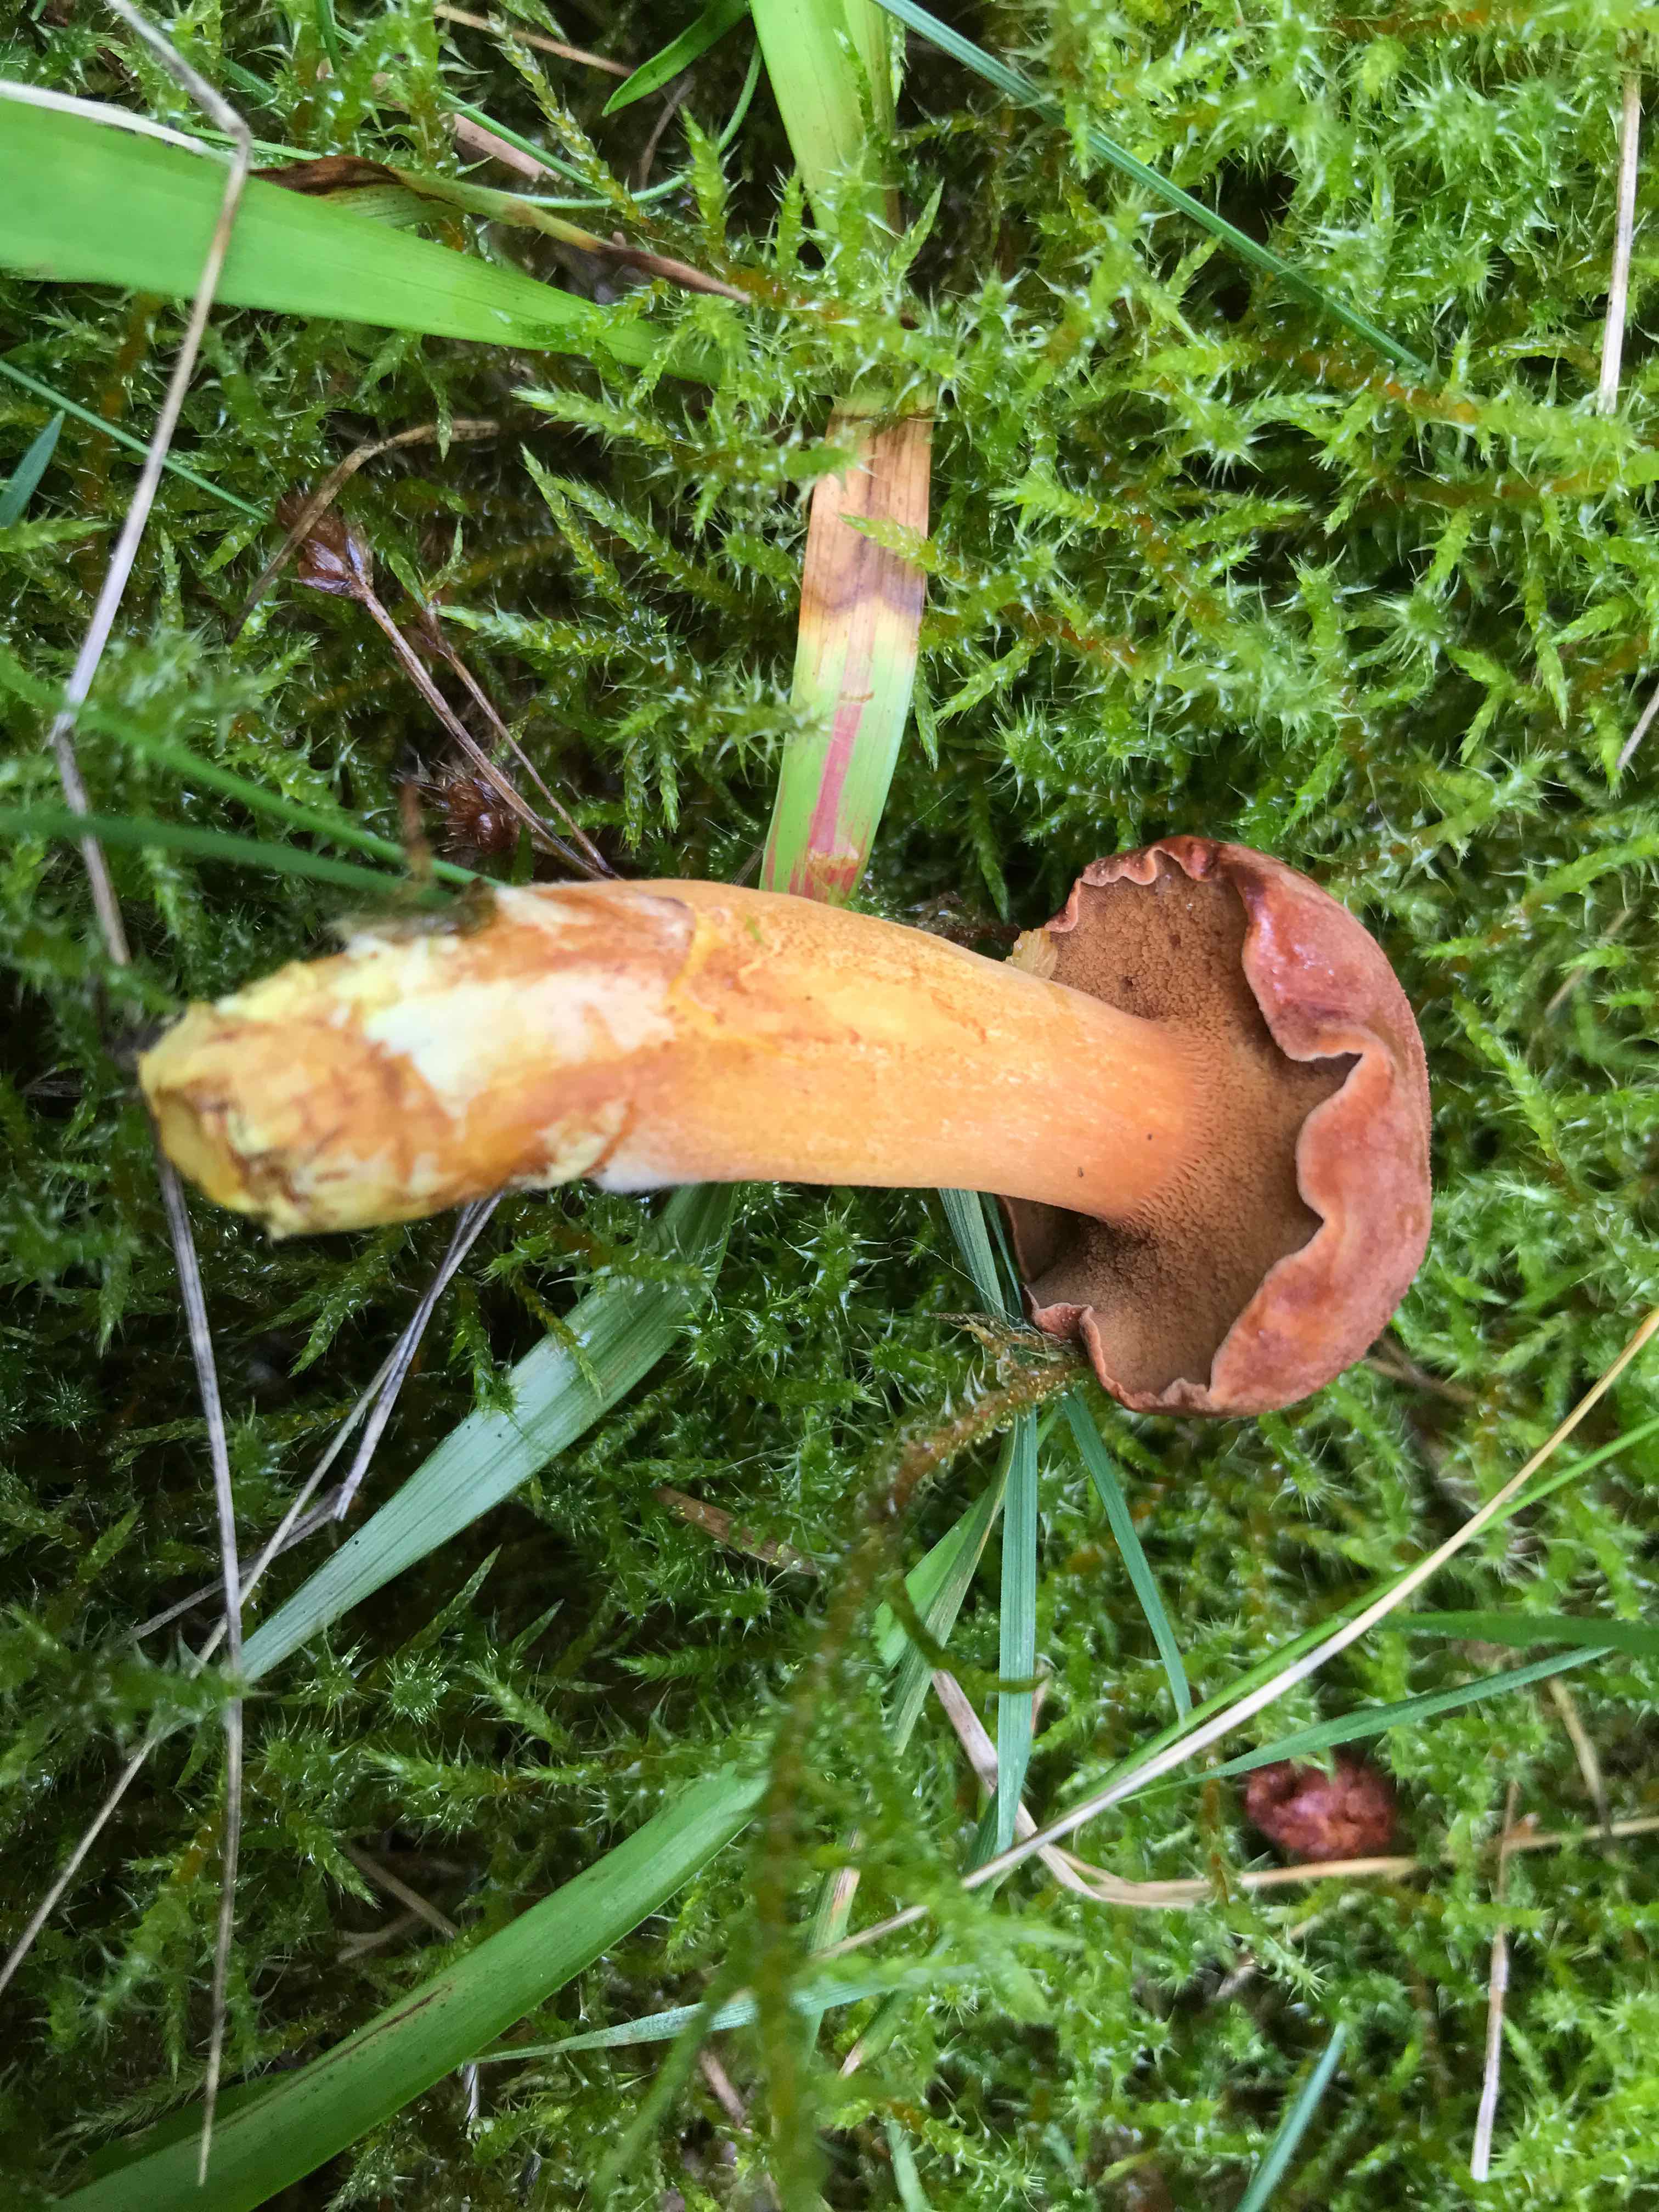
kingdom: Fungi
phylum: Basidiomycota
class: Agaricomycetes
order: Boletales
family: Boletaceae
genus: Chalciporus
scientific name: Chalciporus piperatus
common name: peberrørhat
